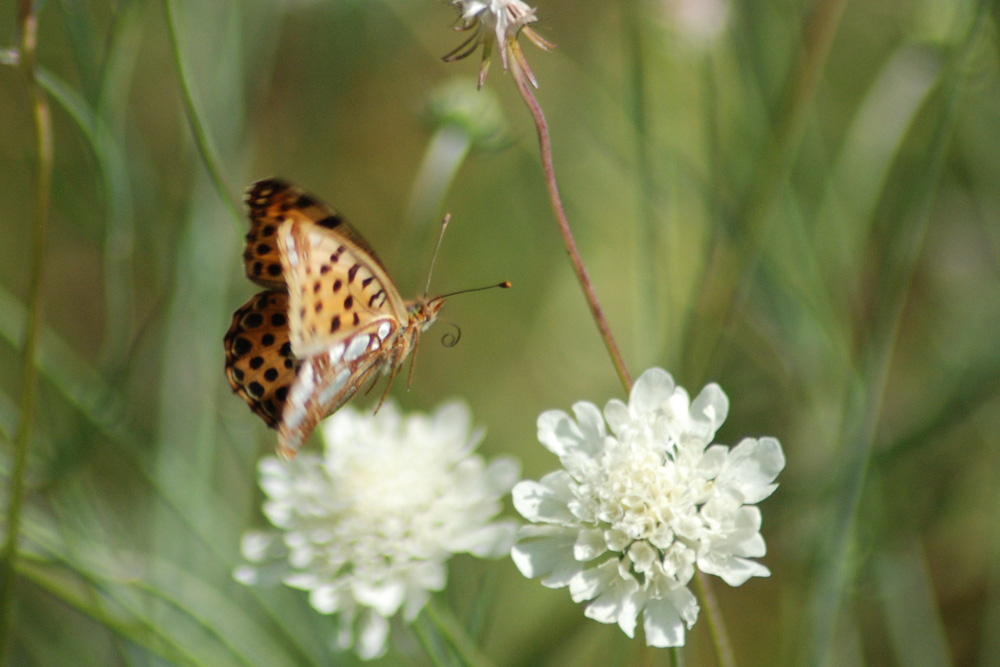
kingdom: Animalia
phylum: Arthropoda
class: Insecta
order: Lepidoptera
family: Nymphalidae
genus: Issoria
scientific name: Issoria lathonia
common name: Queen of spain fritillary
